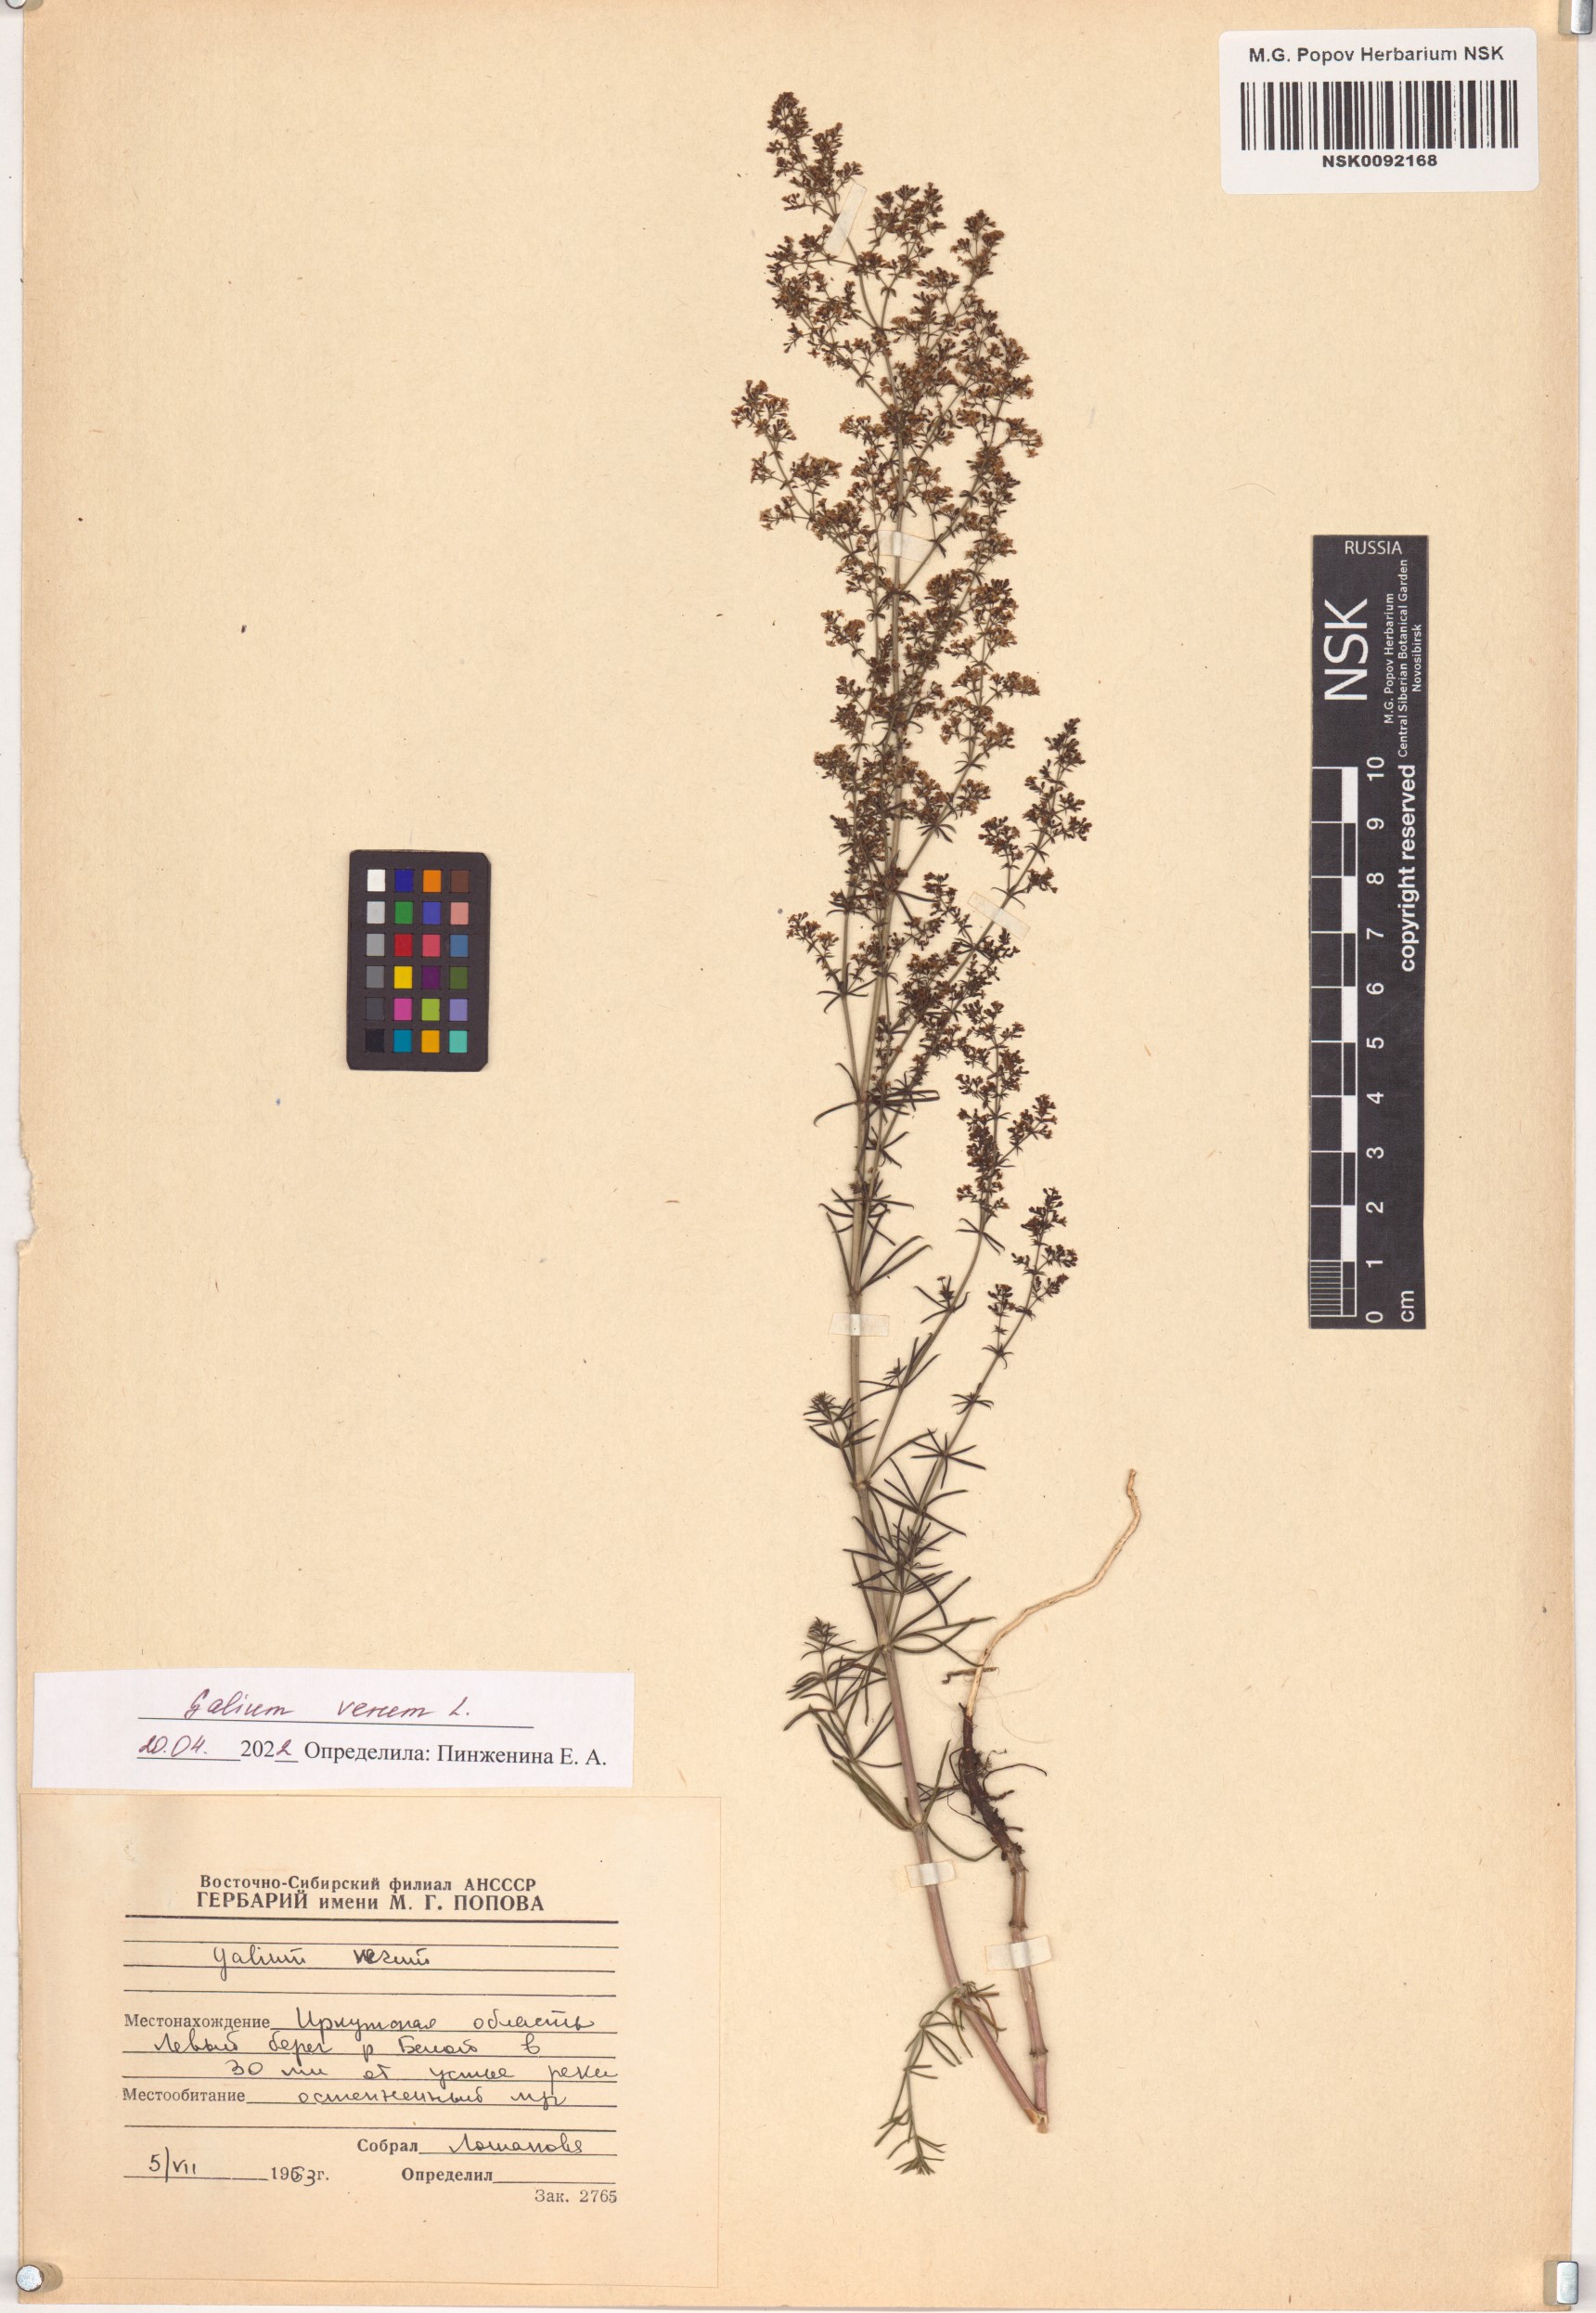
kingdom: Plantae
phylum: Tracheophyta
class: Magnoliopsida
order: Gentianales
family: Rubiaceae
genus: Galium
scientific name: Galium verum
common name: Lady's bedstraw
